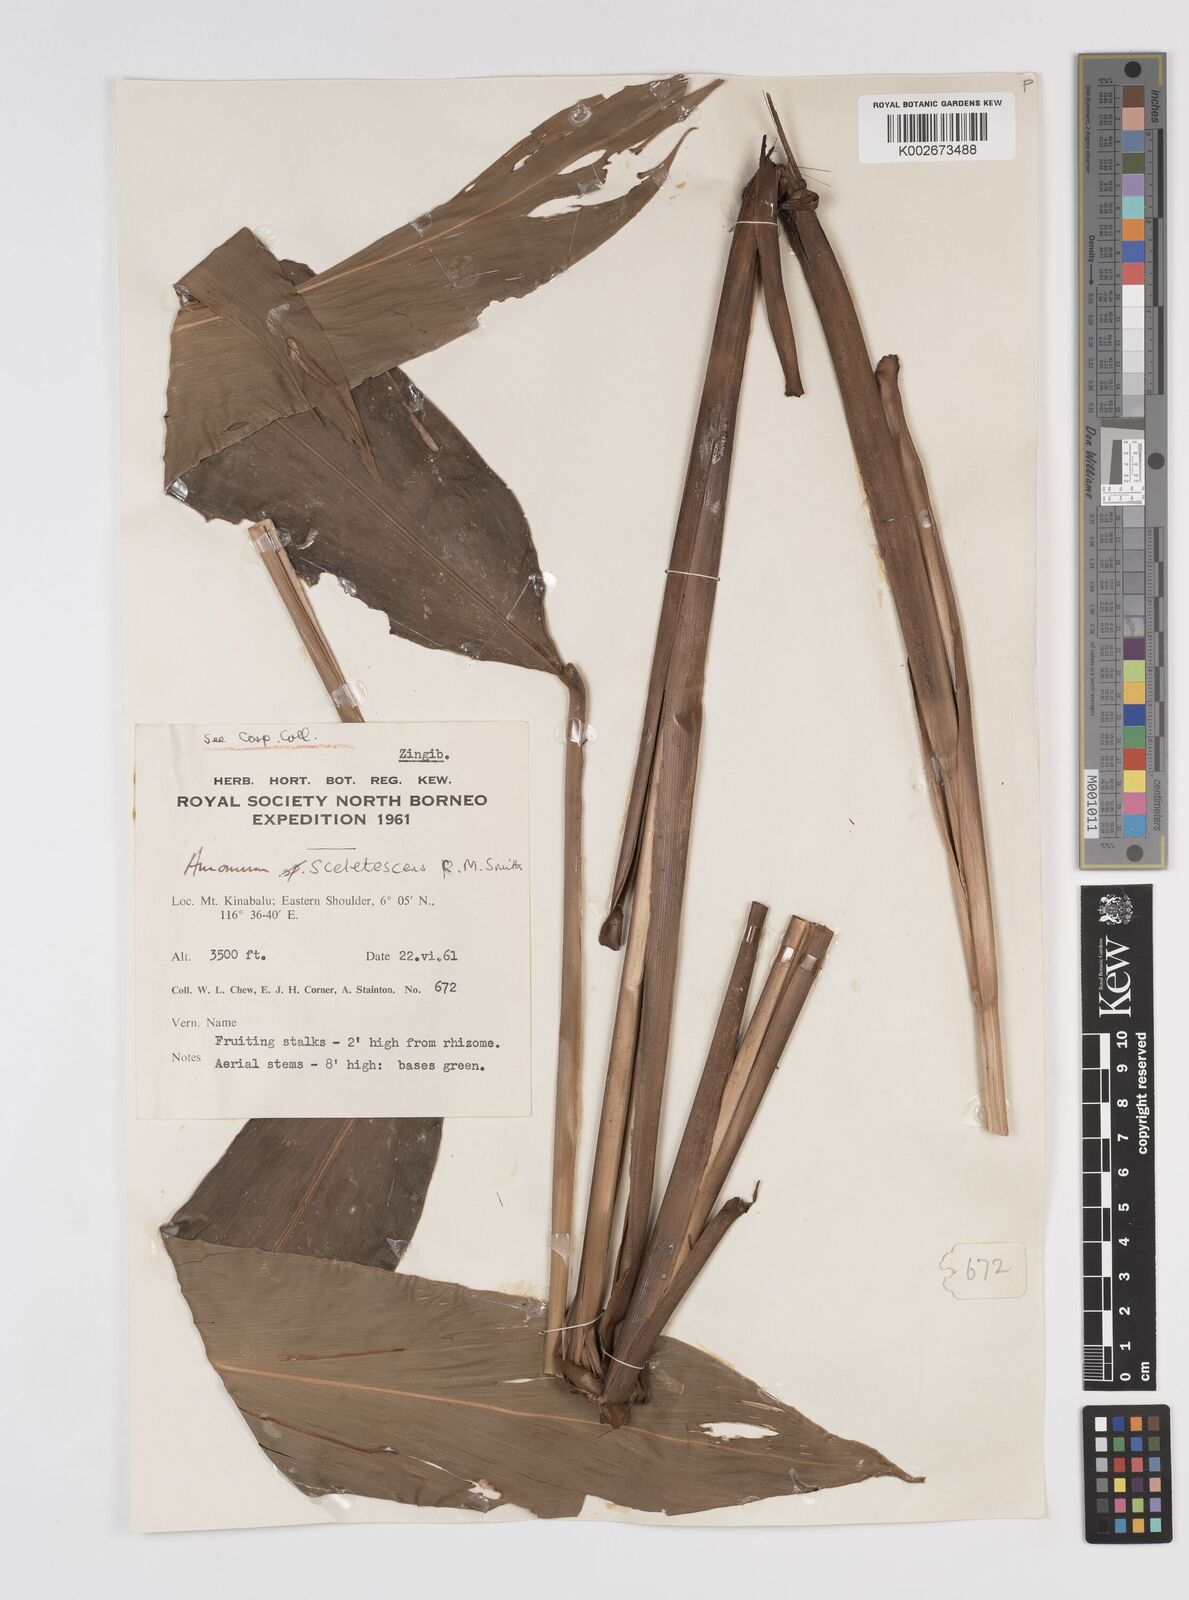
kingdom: Plantae
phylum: Tracheophyta
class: Liliopsida
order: Zingiberales
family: Zingiberaceae
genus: Meistera
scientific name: Meistera sceletescens
